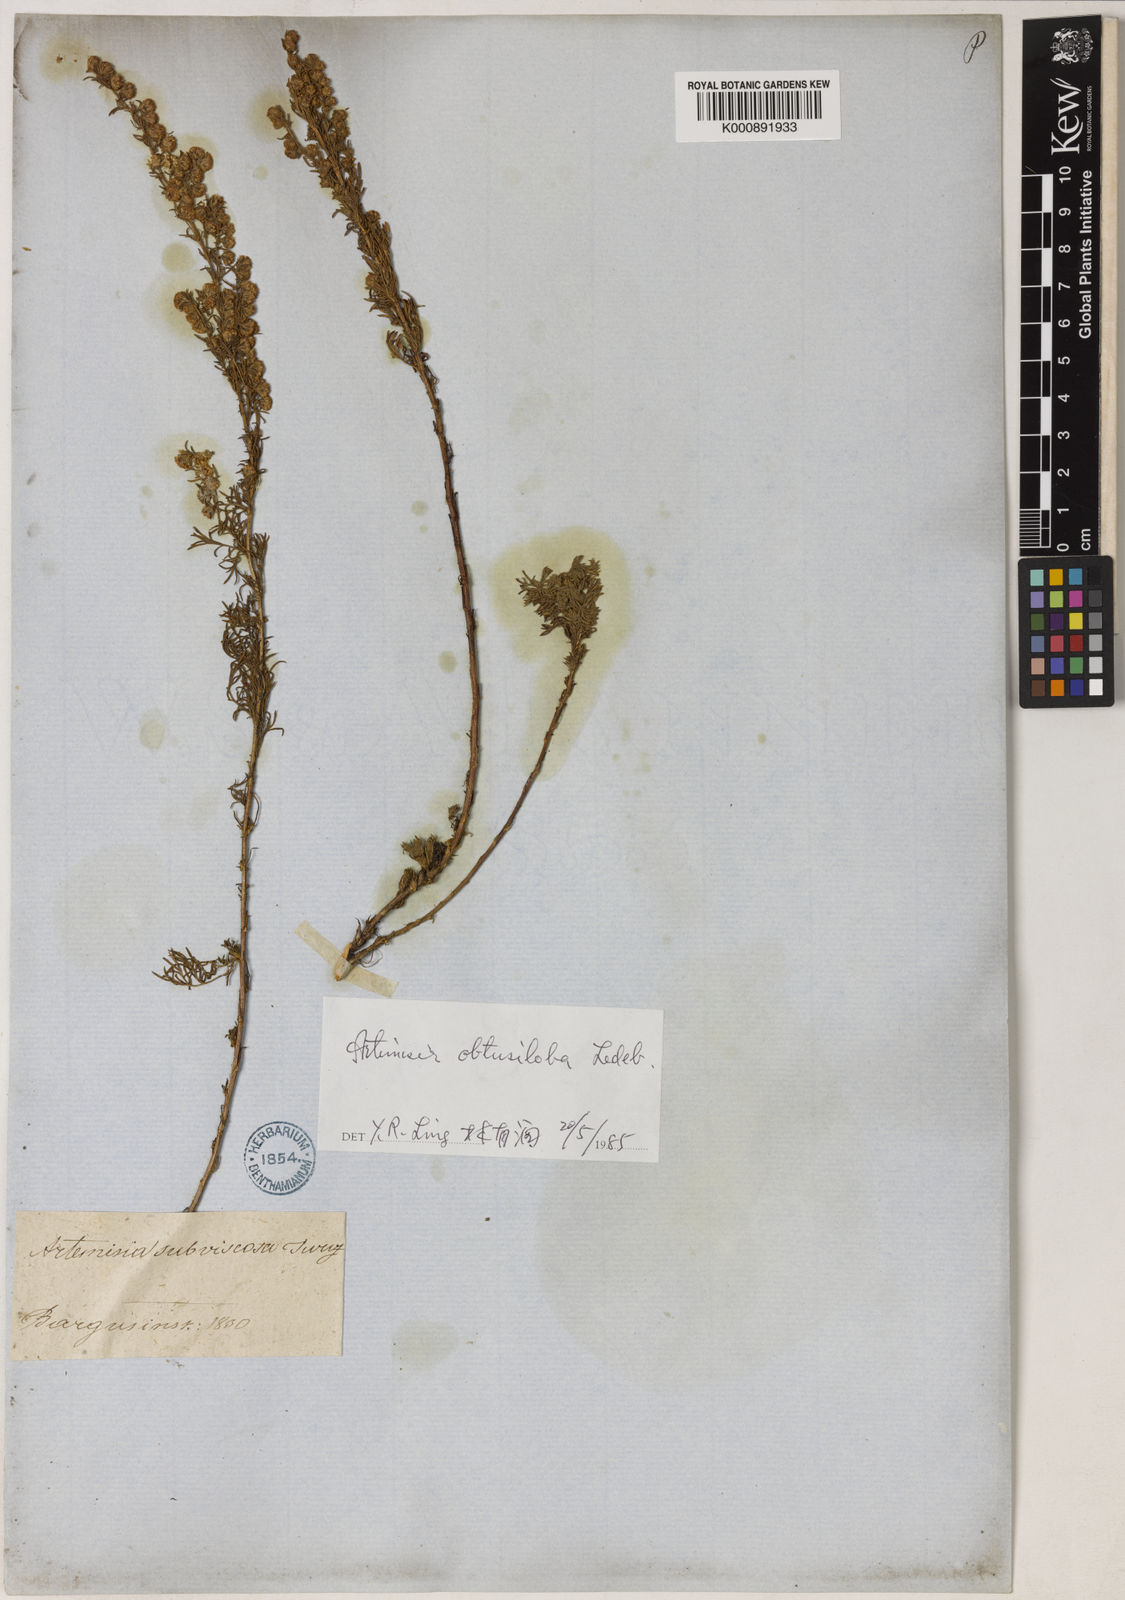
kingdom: Plantae
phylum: Tracheophyta
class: Magnoliopsida
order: Asterales
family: Asteraceae
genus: Artemisia
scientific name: Artemisia obtusiloba
